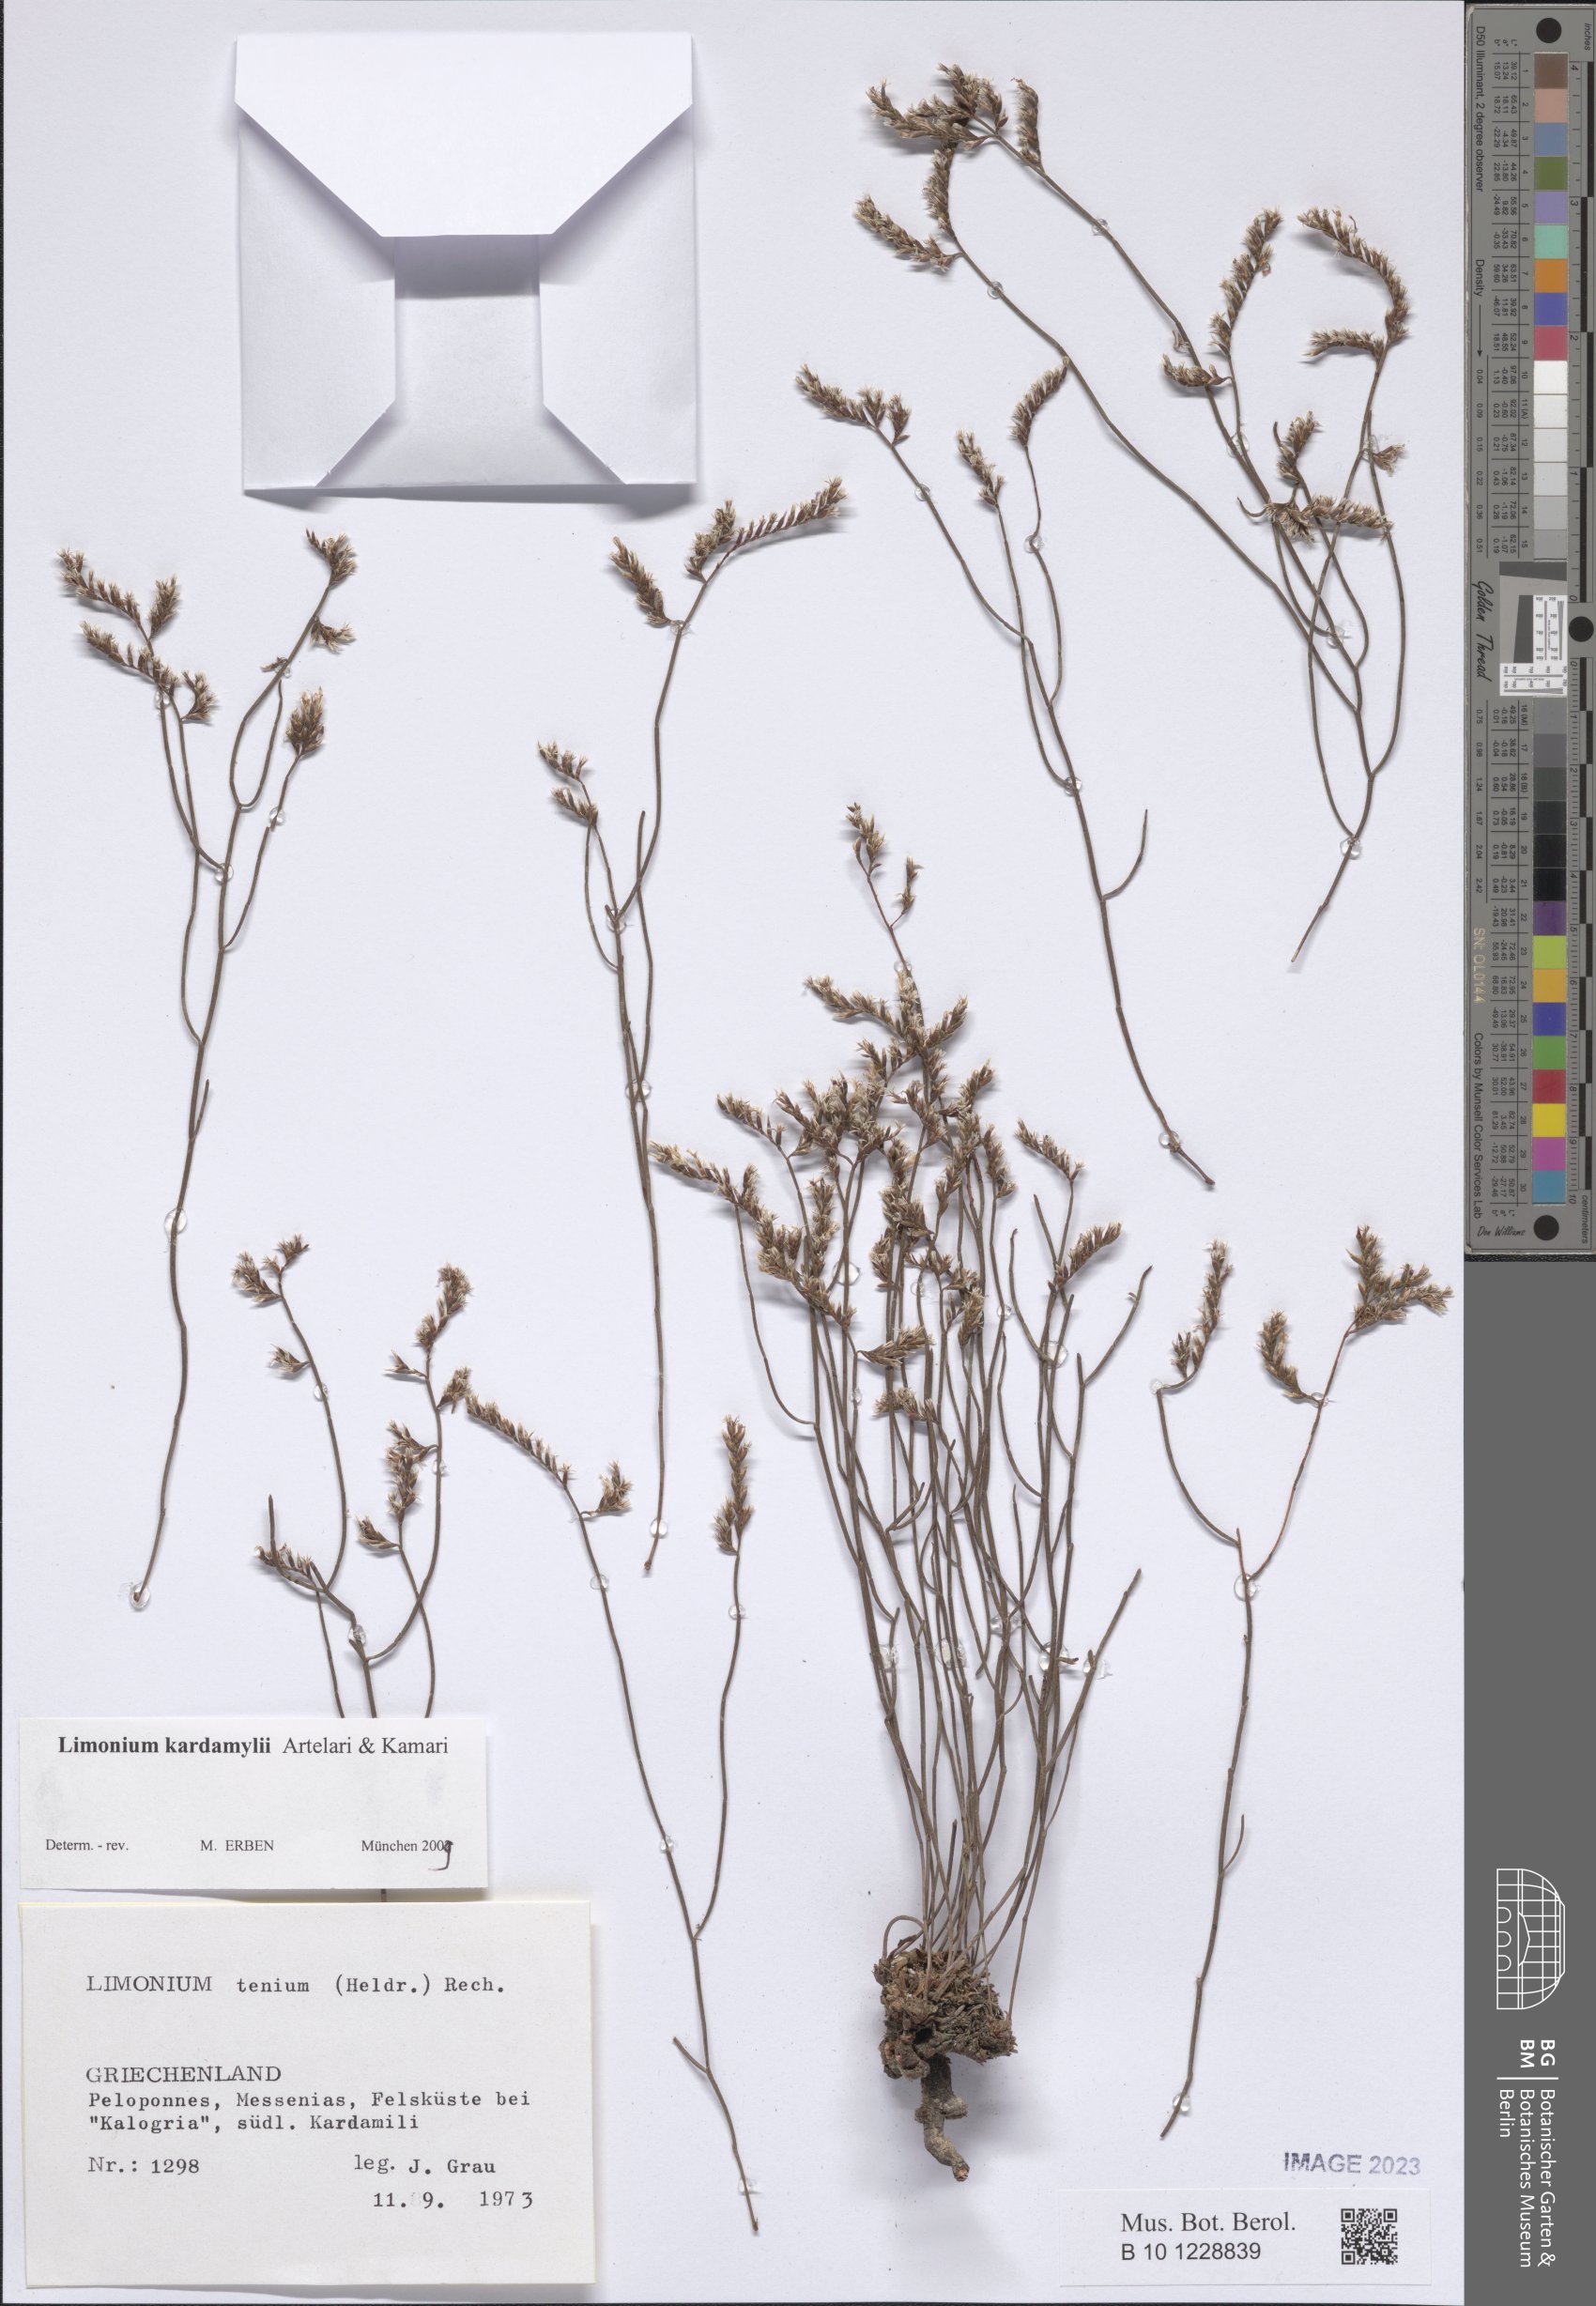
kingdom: Plantae
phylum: Tracheophyta
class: Magnoliopsida
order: Caryophyllales
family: Plumbaginaceae
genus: Limonium
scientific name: Limonium kardamylii
